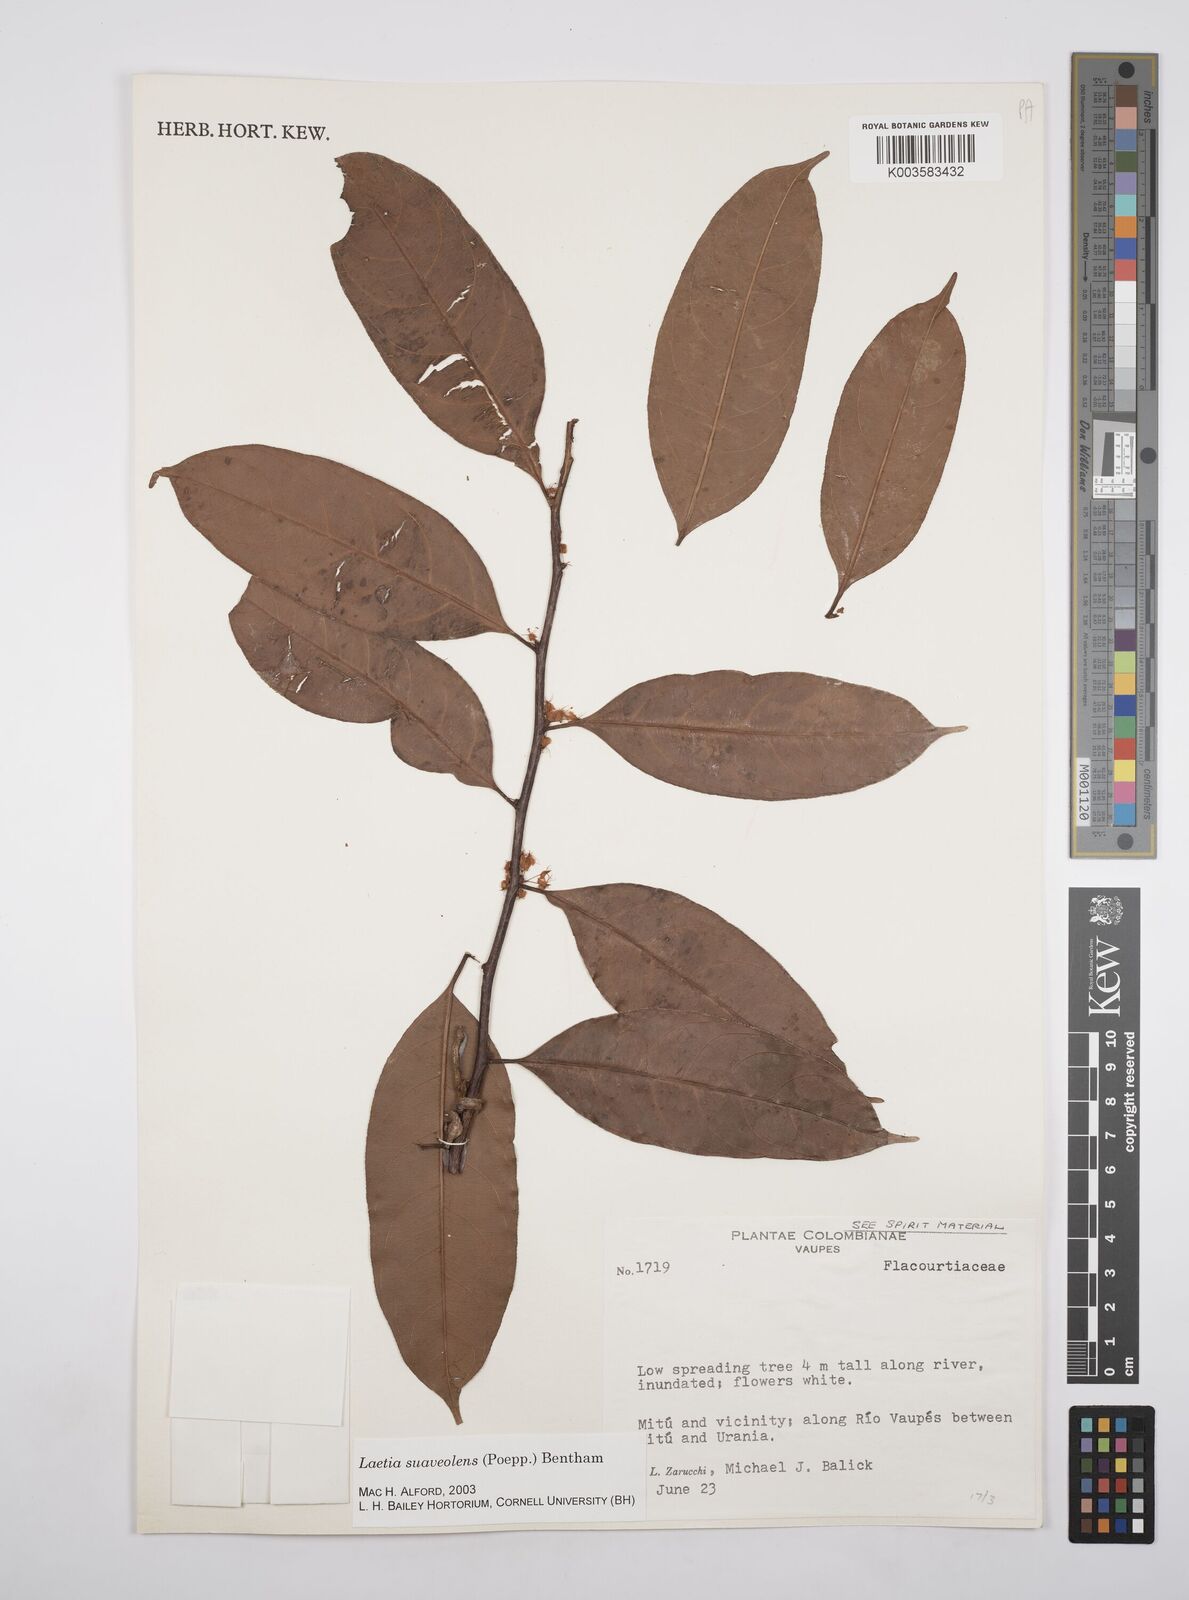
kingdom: Plantae
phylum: Tracheophyta
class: Magnoliopsida
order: Malpighiales
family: Salicaceae
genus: Casearia
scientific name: Casearia suaveolens
